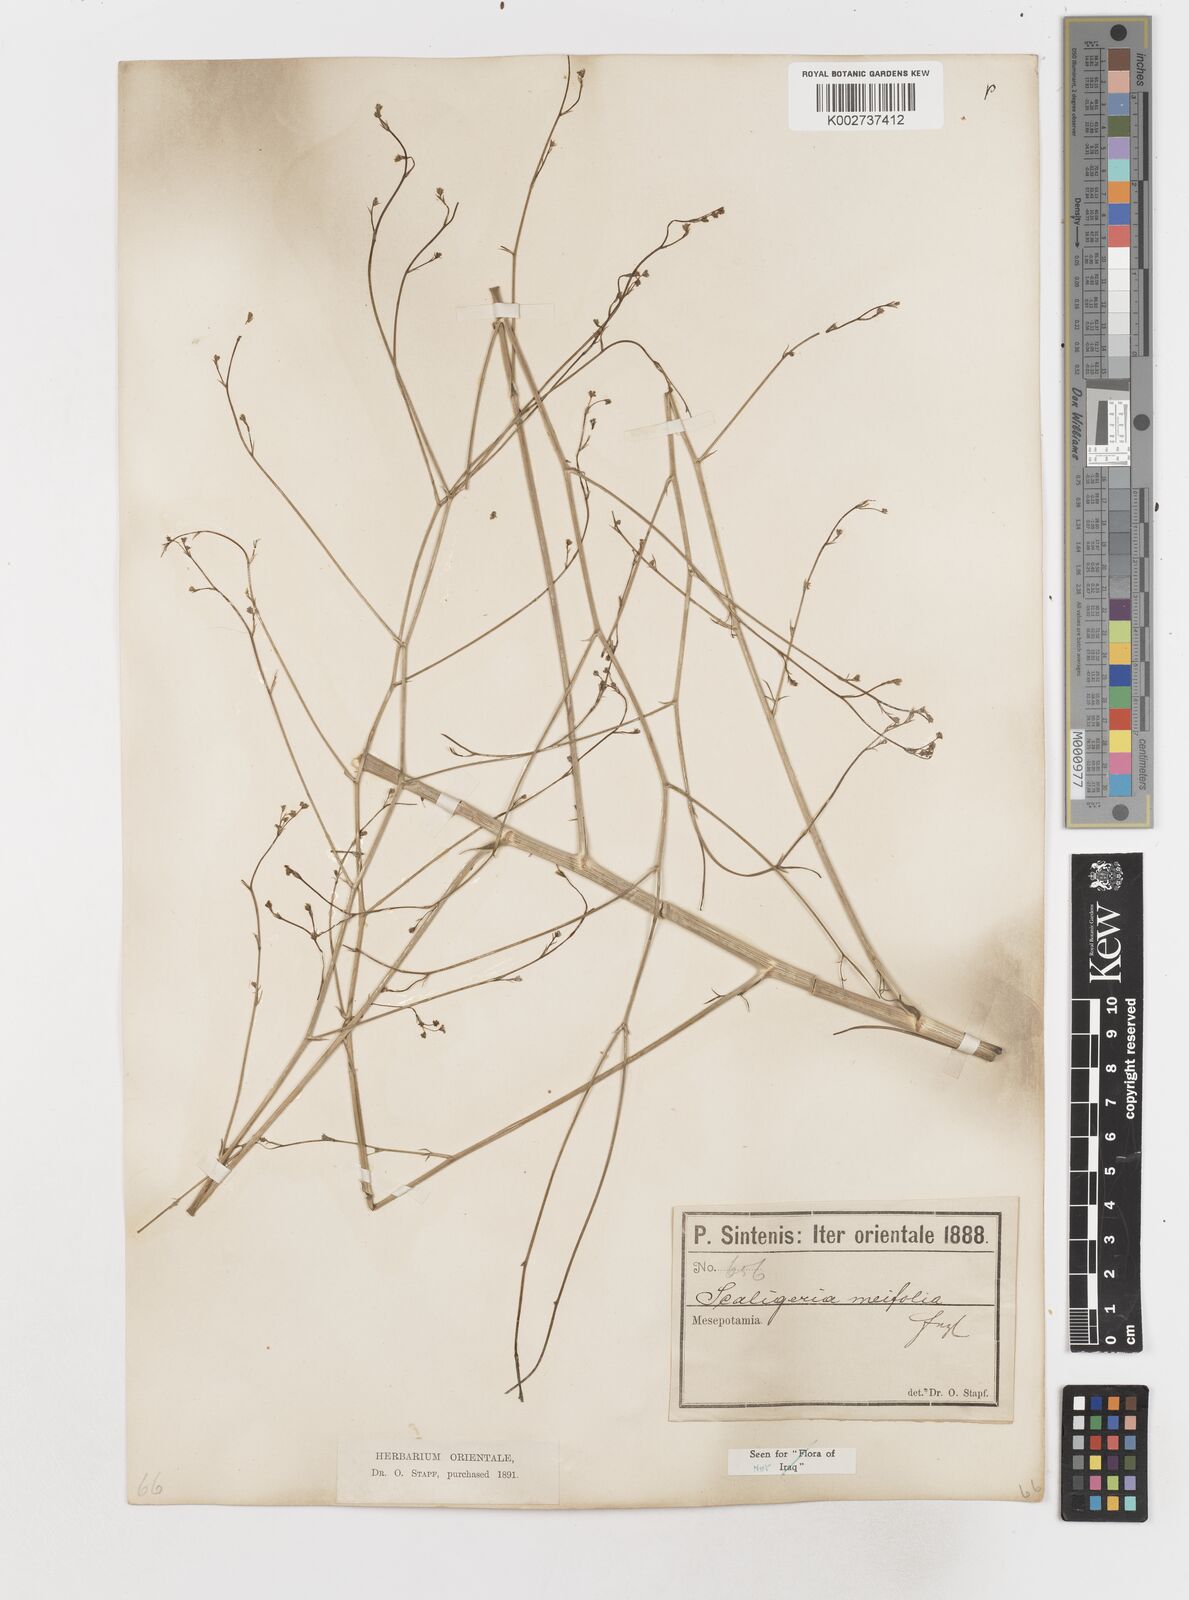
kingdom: Plantae
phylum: Tracheophyta
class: Magnoliopsida
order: Apiales
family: Apiaceae
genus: Elaeosticta
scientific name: Elaeosticta meifolia
